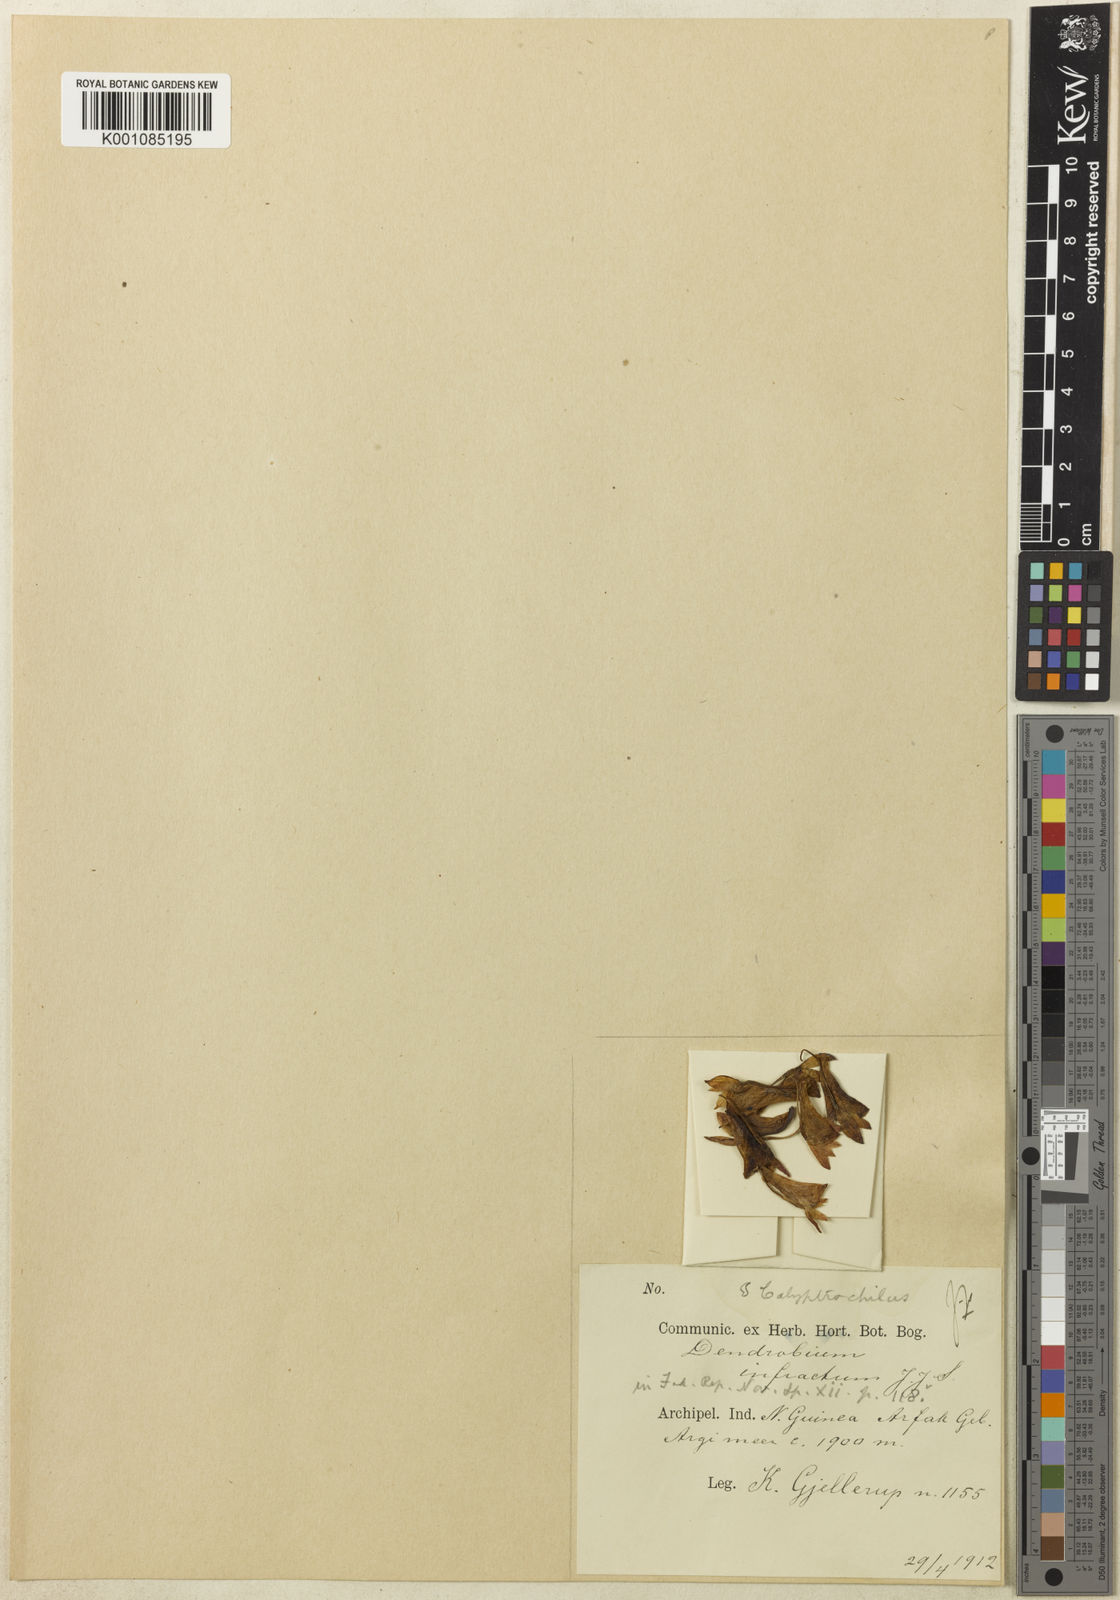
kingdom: Plantae
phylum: Tracheophyta
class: Liliopsida
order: Asparagales
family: Orchidaceae
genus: Dendrobium
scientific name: Dendrobium subclausum
